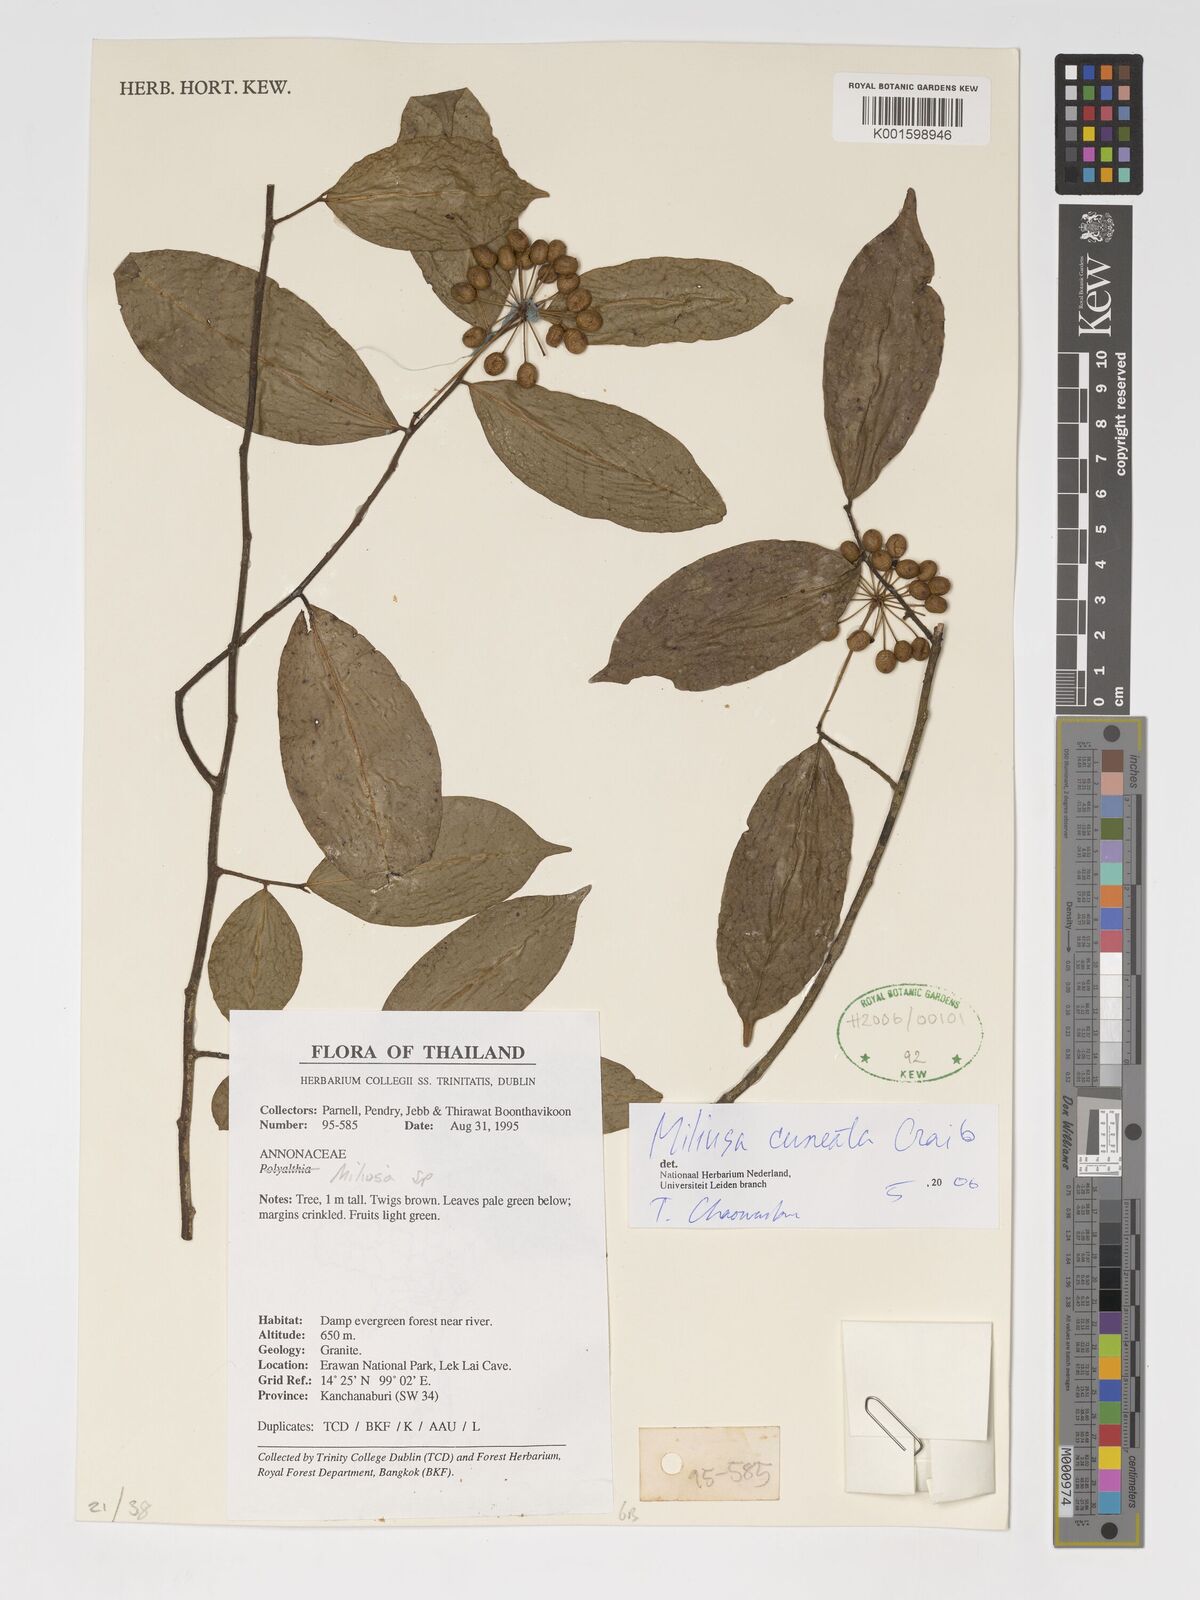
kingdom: Plantae
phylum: Tracheophyta
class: Magnoliopsida
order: Magnoliales
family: Annonaceae
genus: Miliusa
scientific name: Miliusa cuneata
